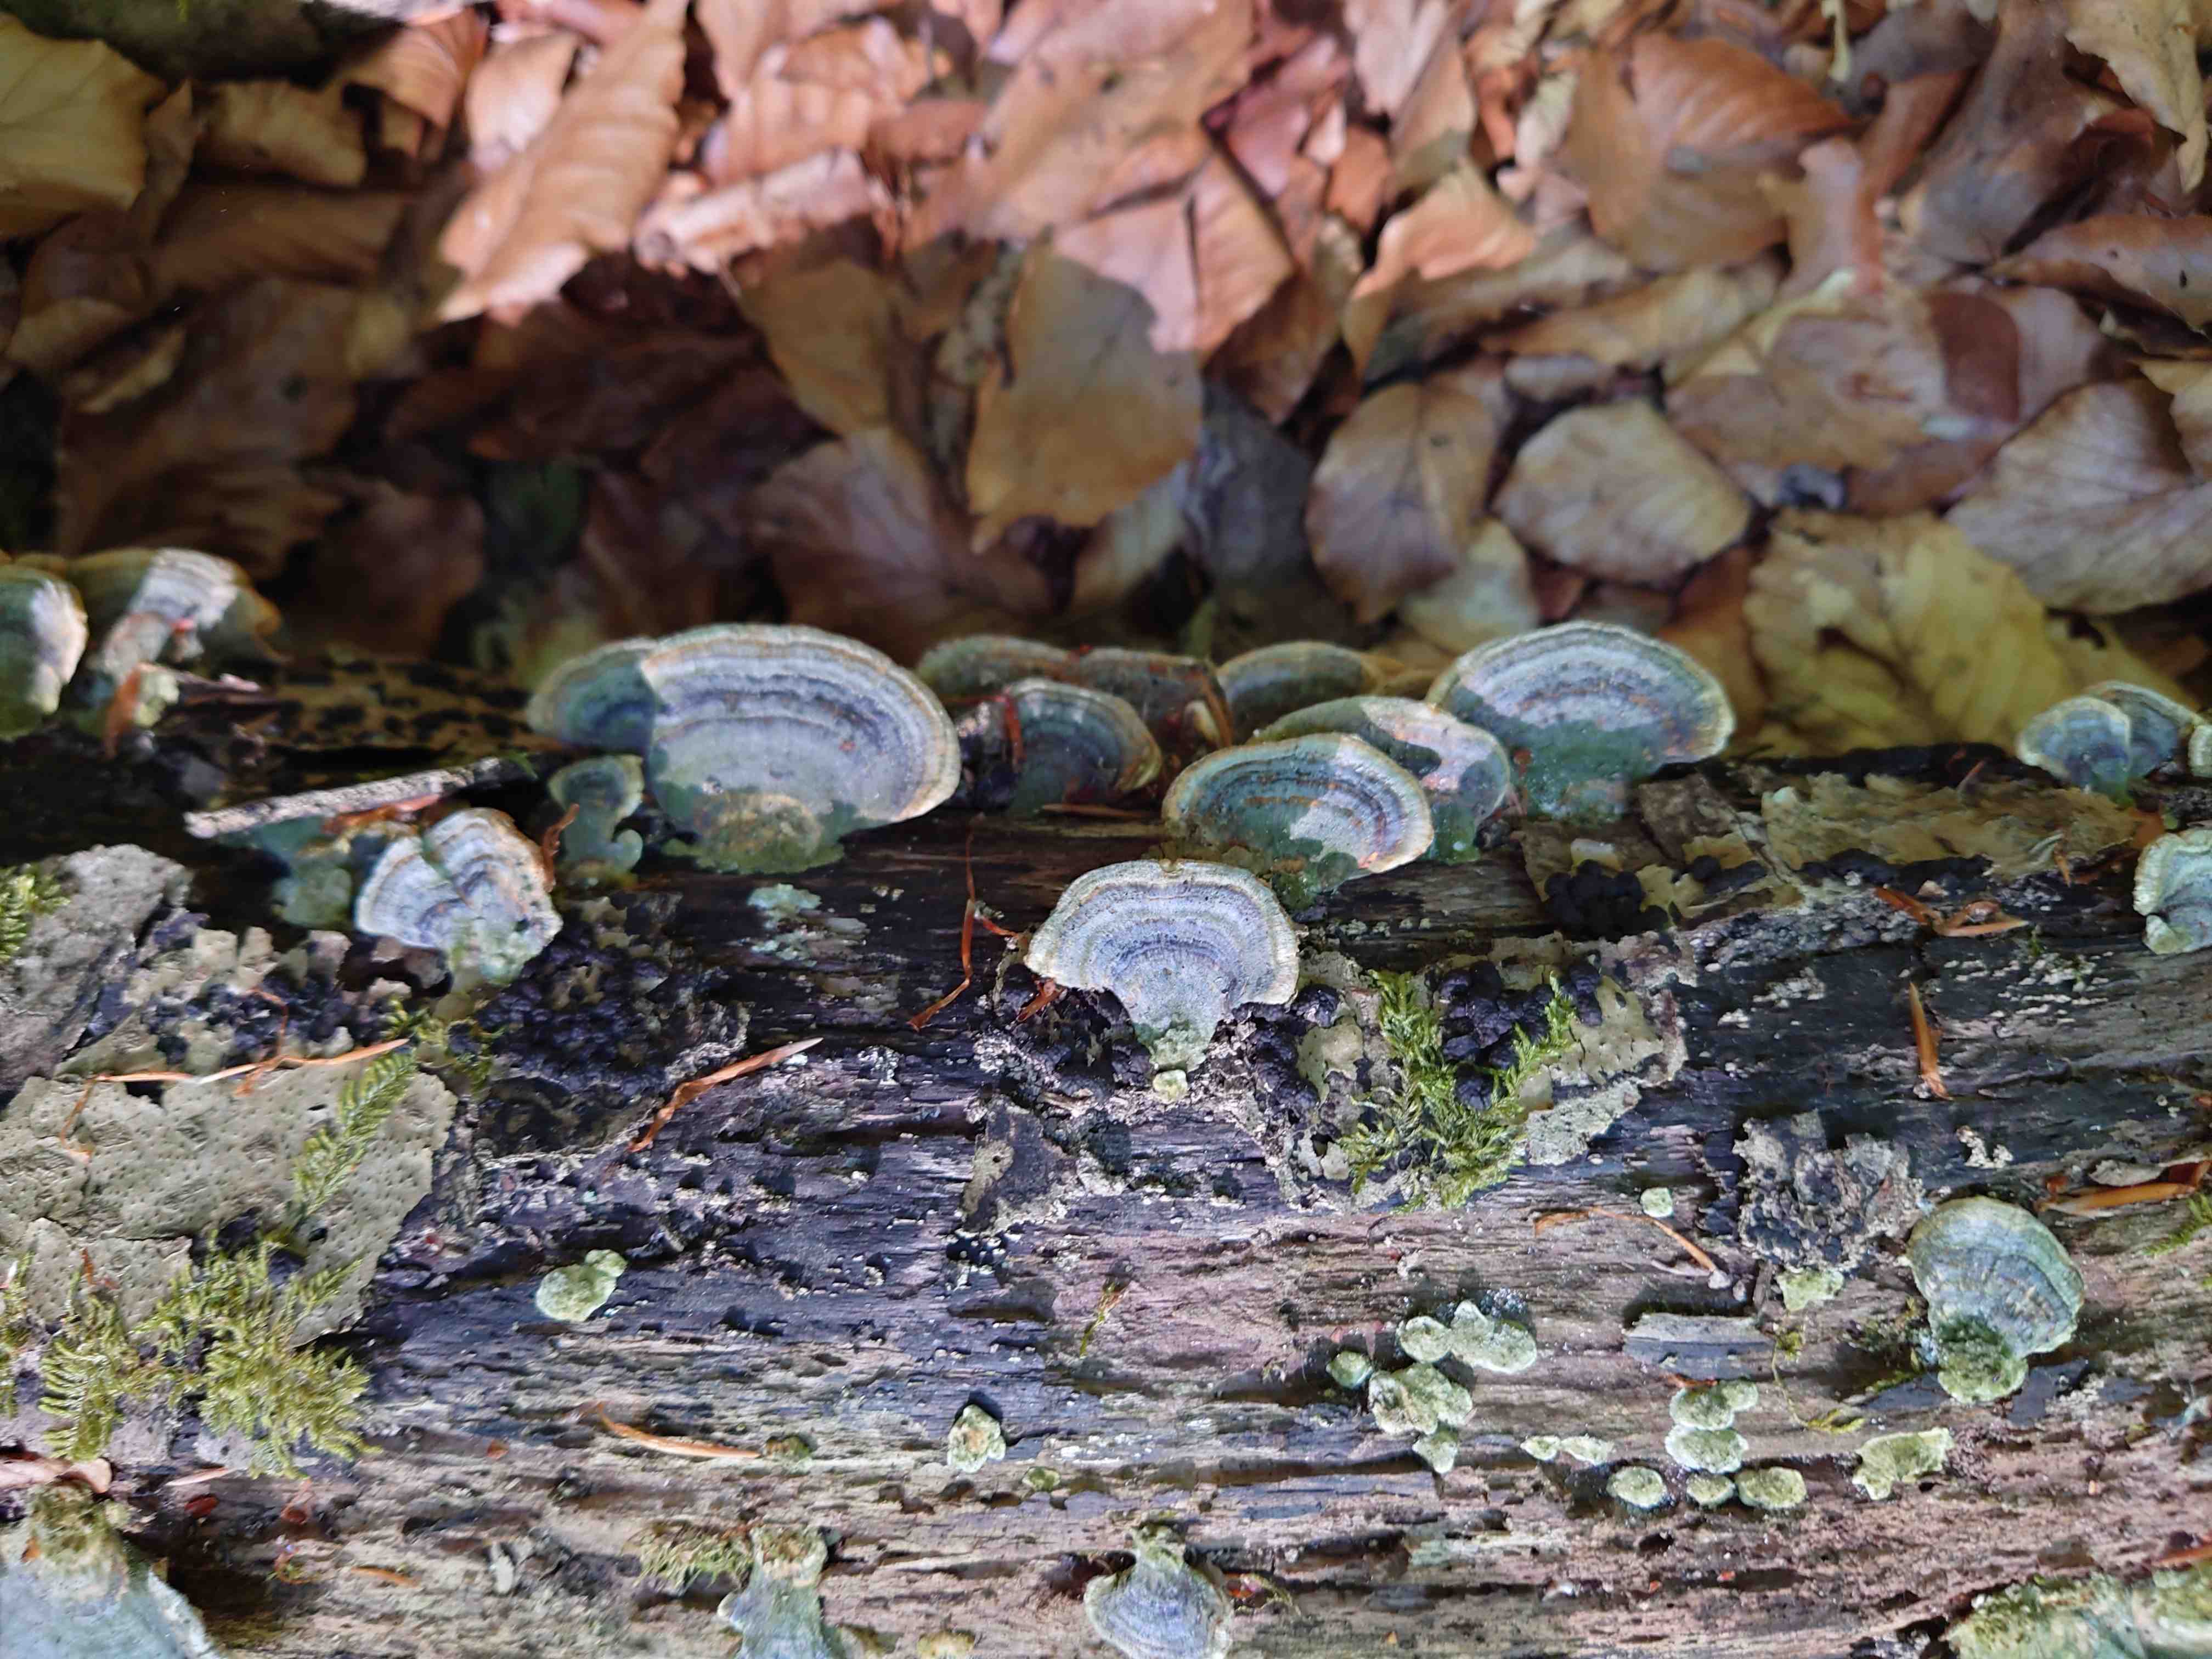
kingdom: Fungi
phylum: Basidiomycota
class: Agaricomycetes
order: Polyporales
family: Polyporaceae
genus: Trametes
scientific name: Trametes versicolor
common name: broget læderporesvamp
